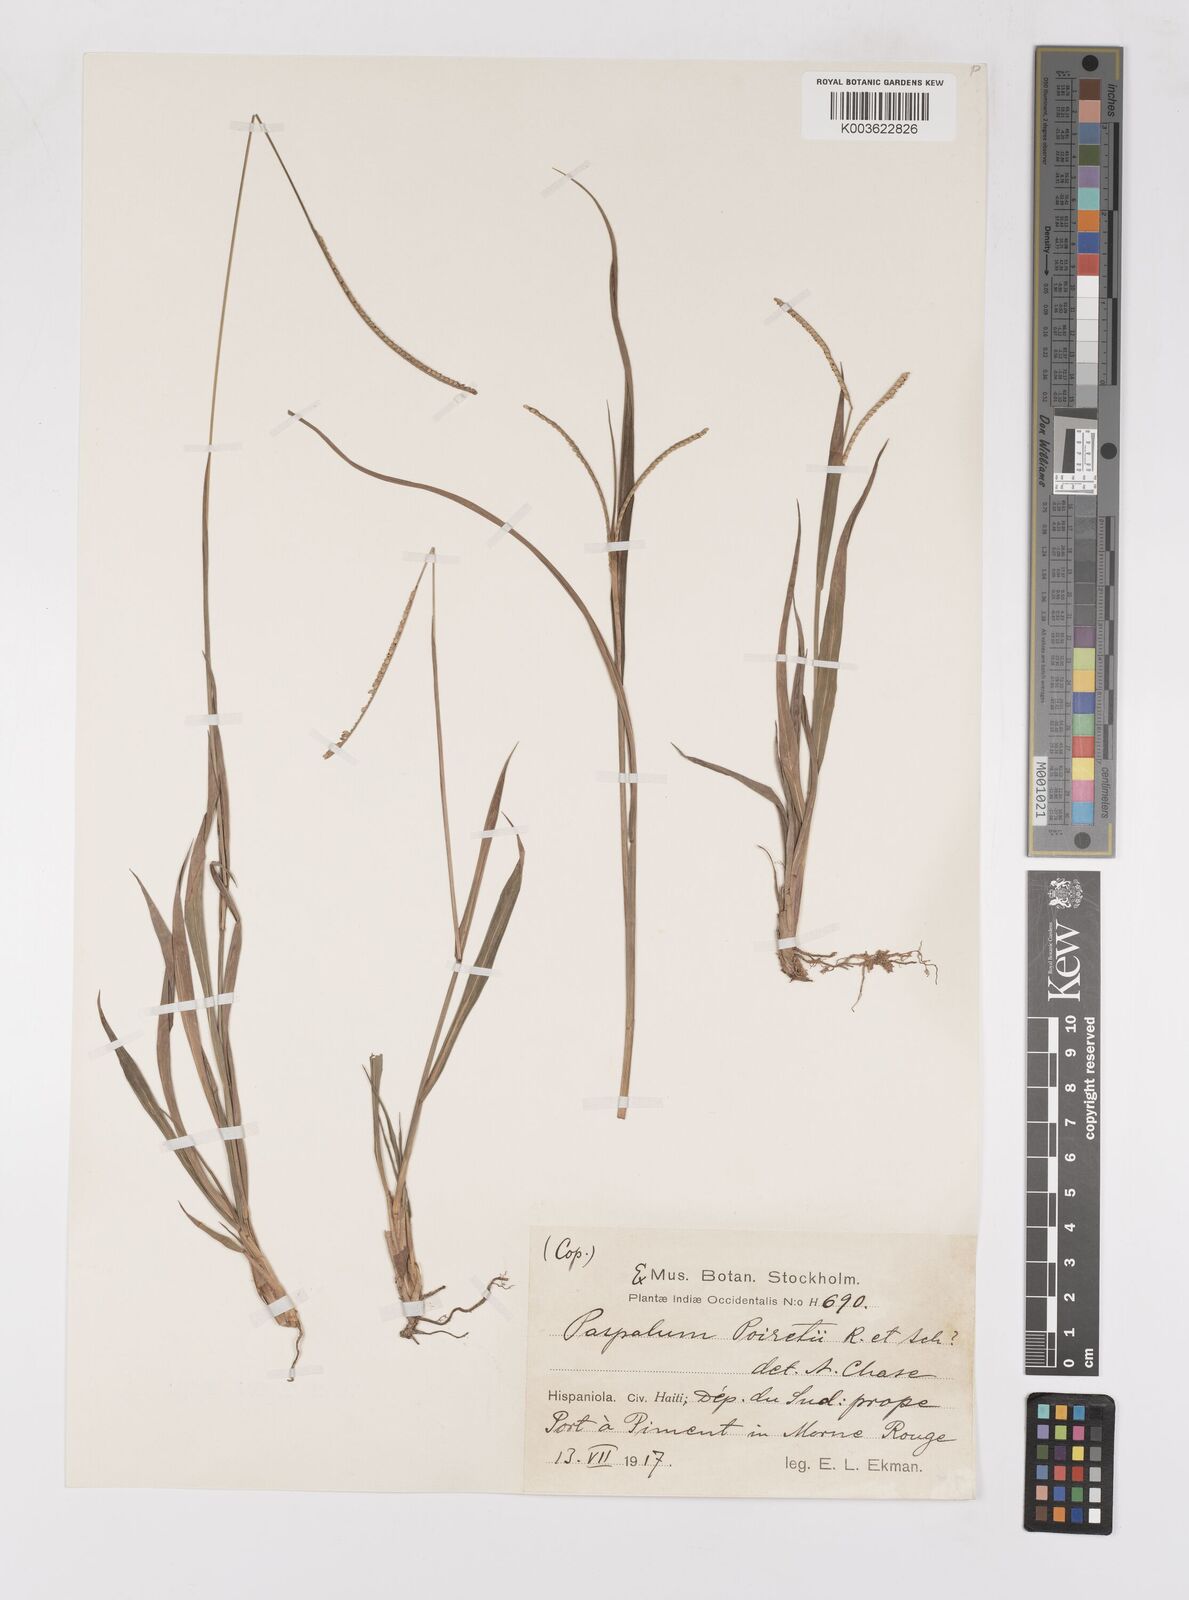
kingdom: Plantae
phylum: Tracheophyta
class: Liliopsida
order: Poales
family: Poaceae
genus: Paspalum
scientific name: Paspalum caespitosum
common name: Blue crowngrass
